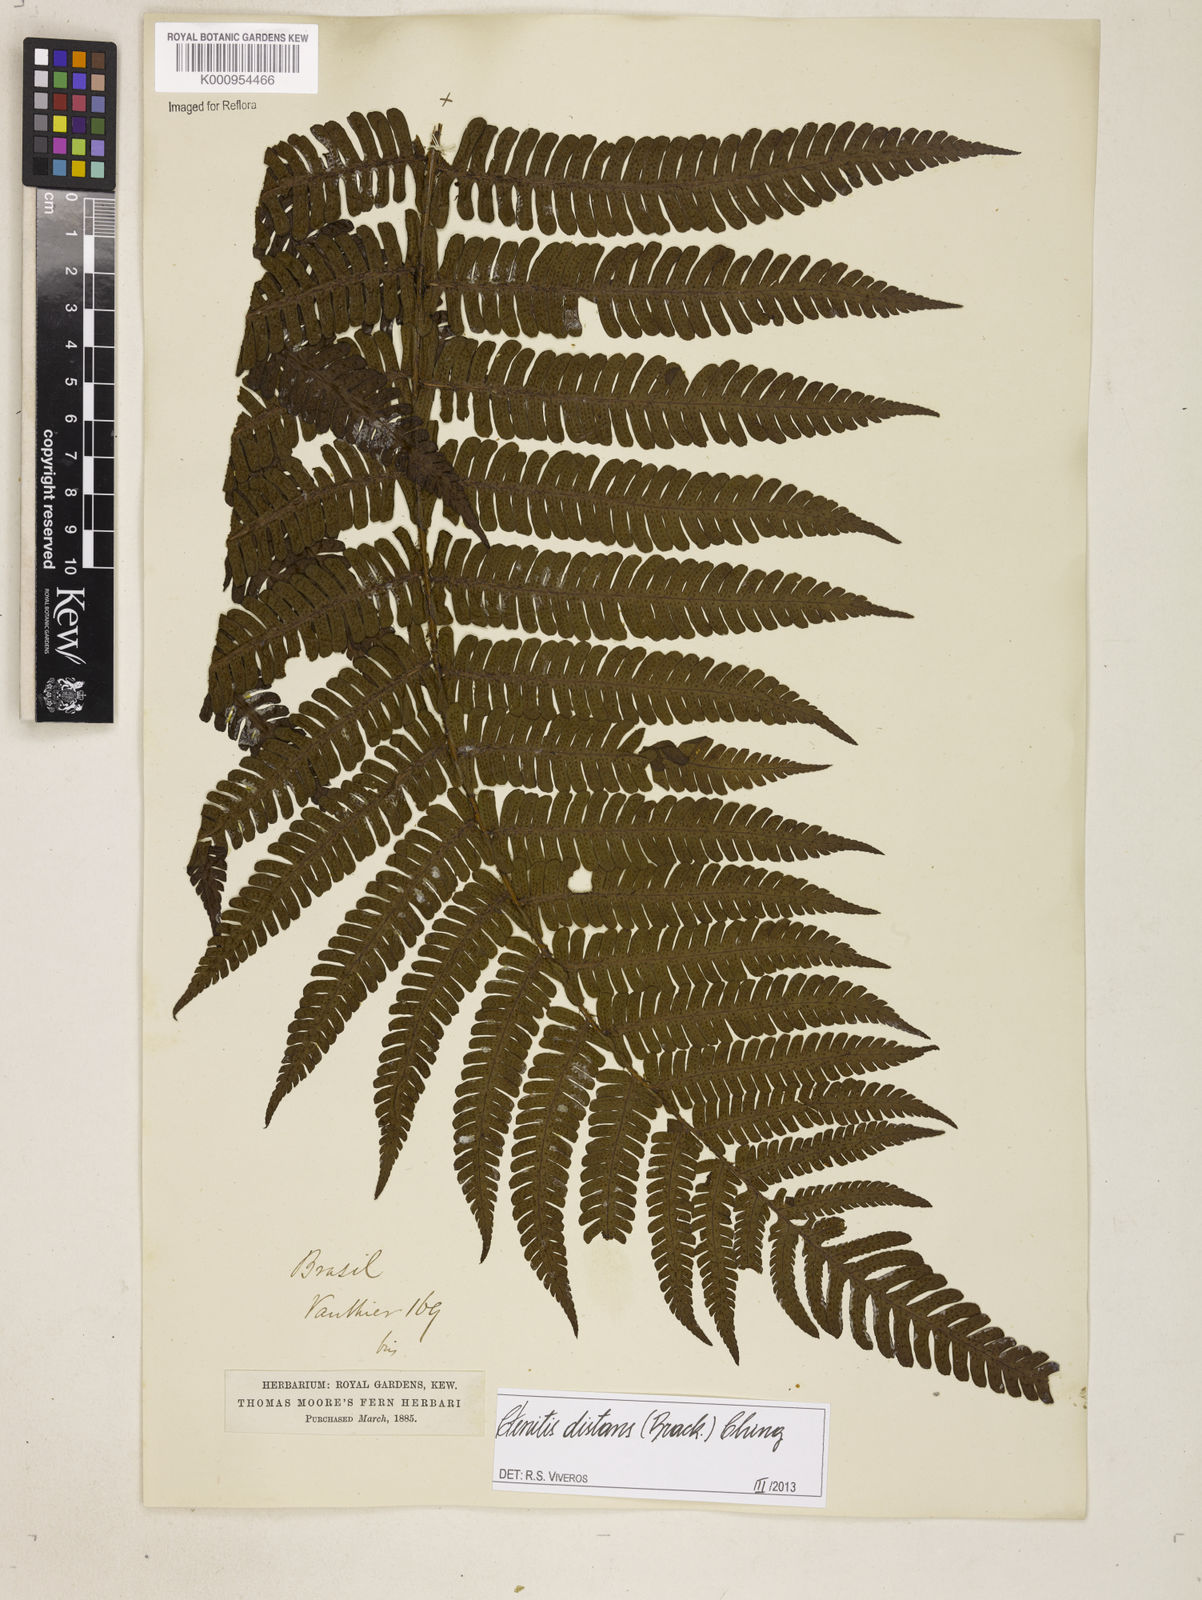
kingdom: Plantae
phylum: Tracheophyta
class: Polypodiopsida
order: Polypodiales
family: Dryopteridaceae
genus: Ctenitis
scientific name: Ctenitis distans
